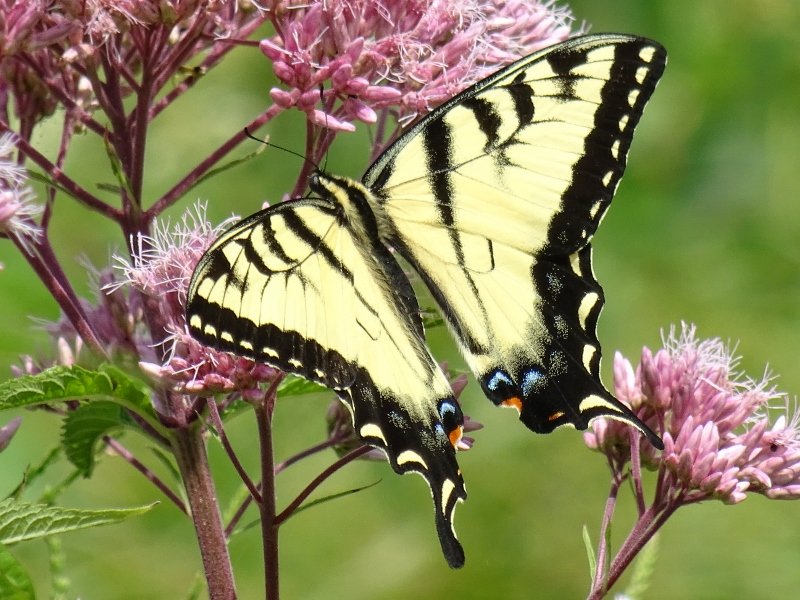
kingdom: Animalia
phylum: Arthropoda
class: Insecta
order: Lepidoptera
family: Papilionidae
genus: Pterourus
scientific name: Pterourus glaucus
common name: Eastern Tiger Swallowtail
